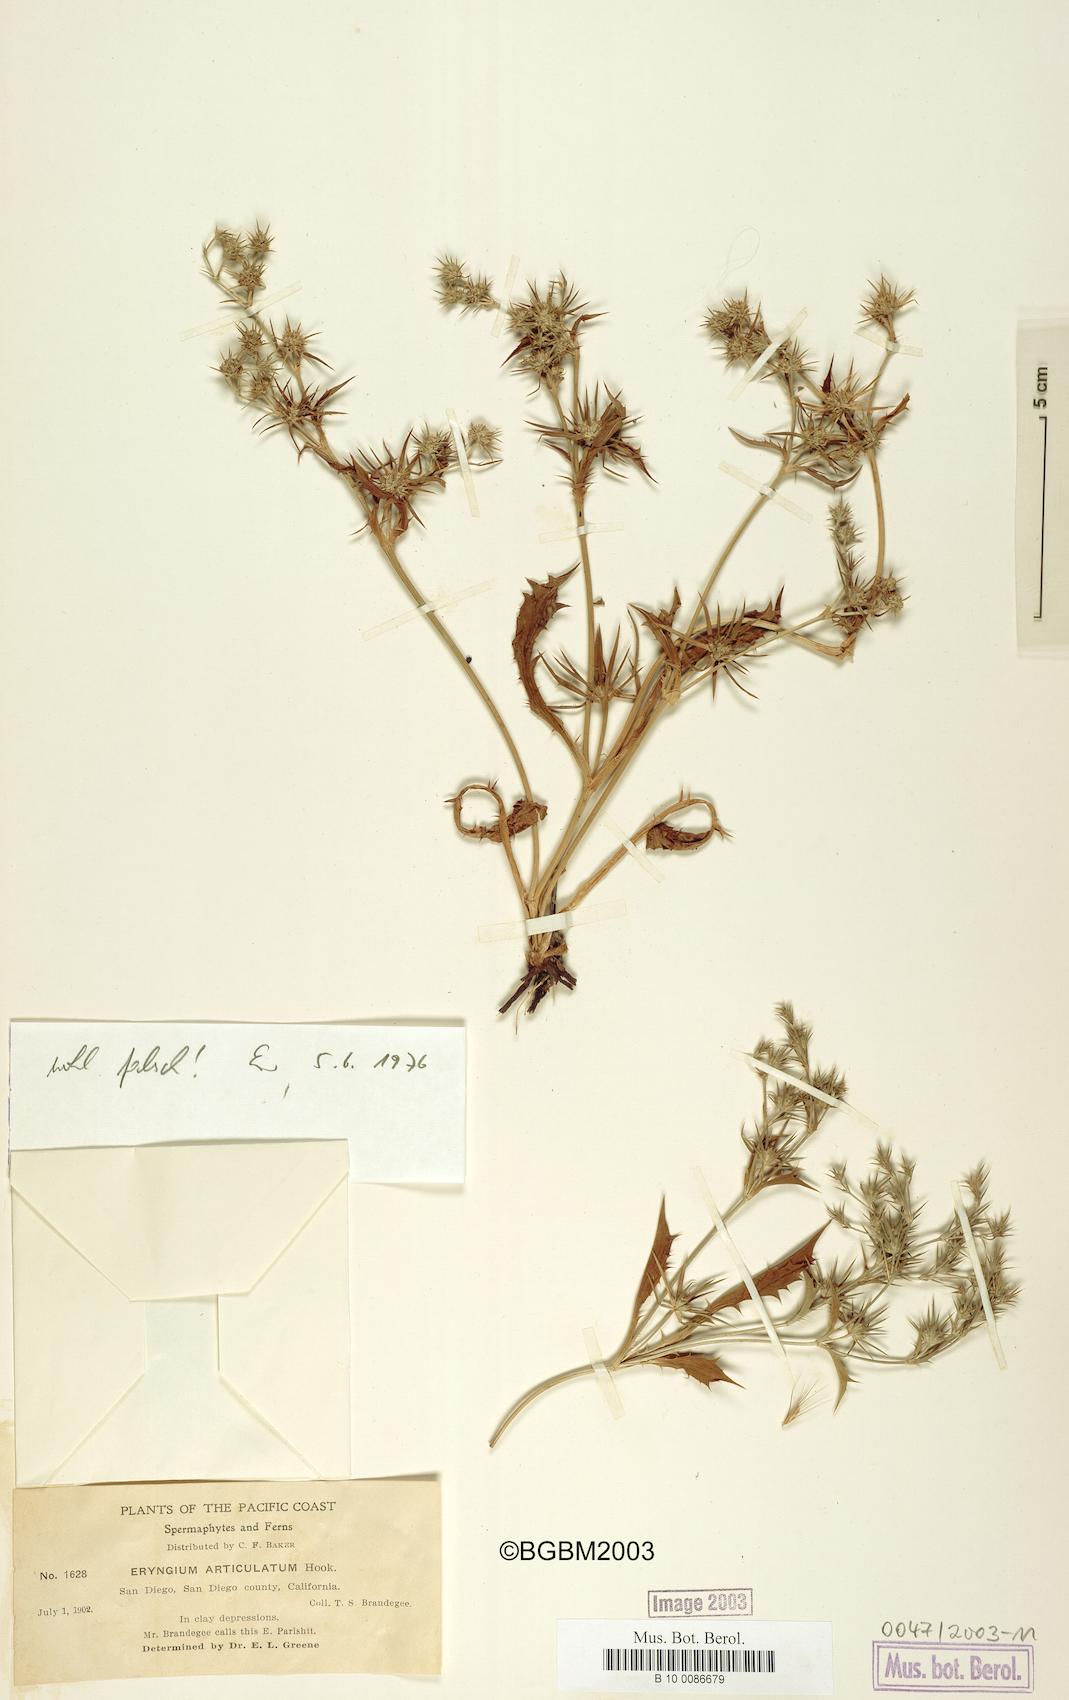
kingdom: Plantae
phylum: Tracheophyta
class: Magnoliopsida
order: Apiales
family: Apiaceae
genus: Eryngium
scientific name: Eryngium articulatum
